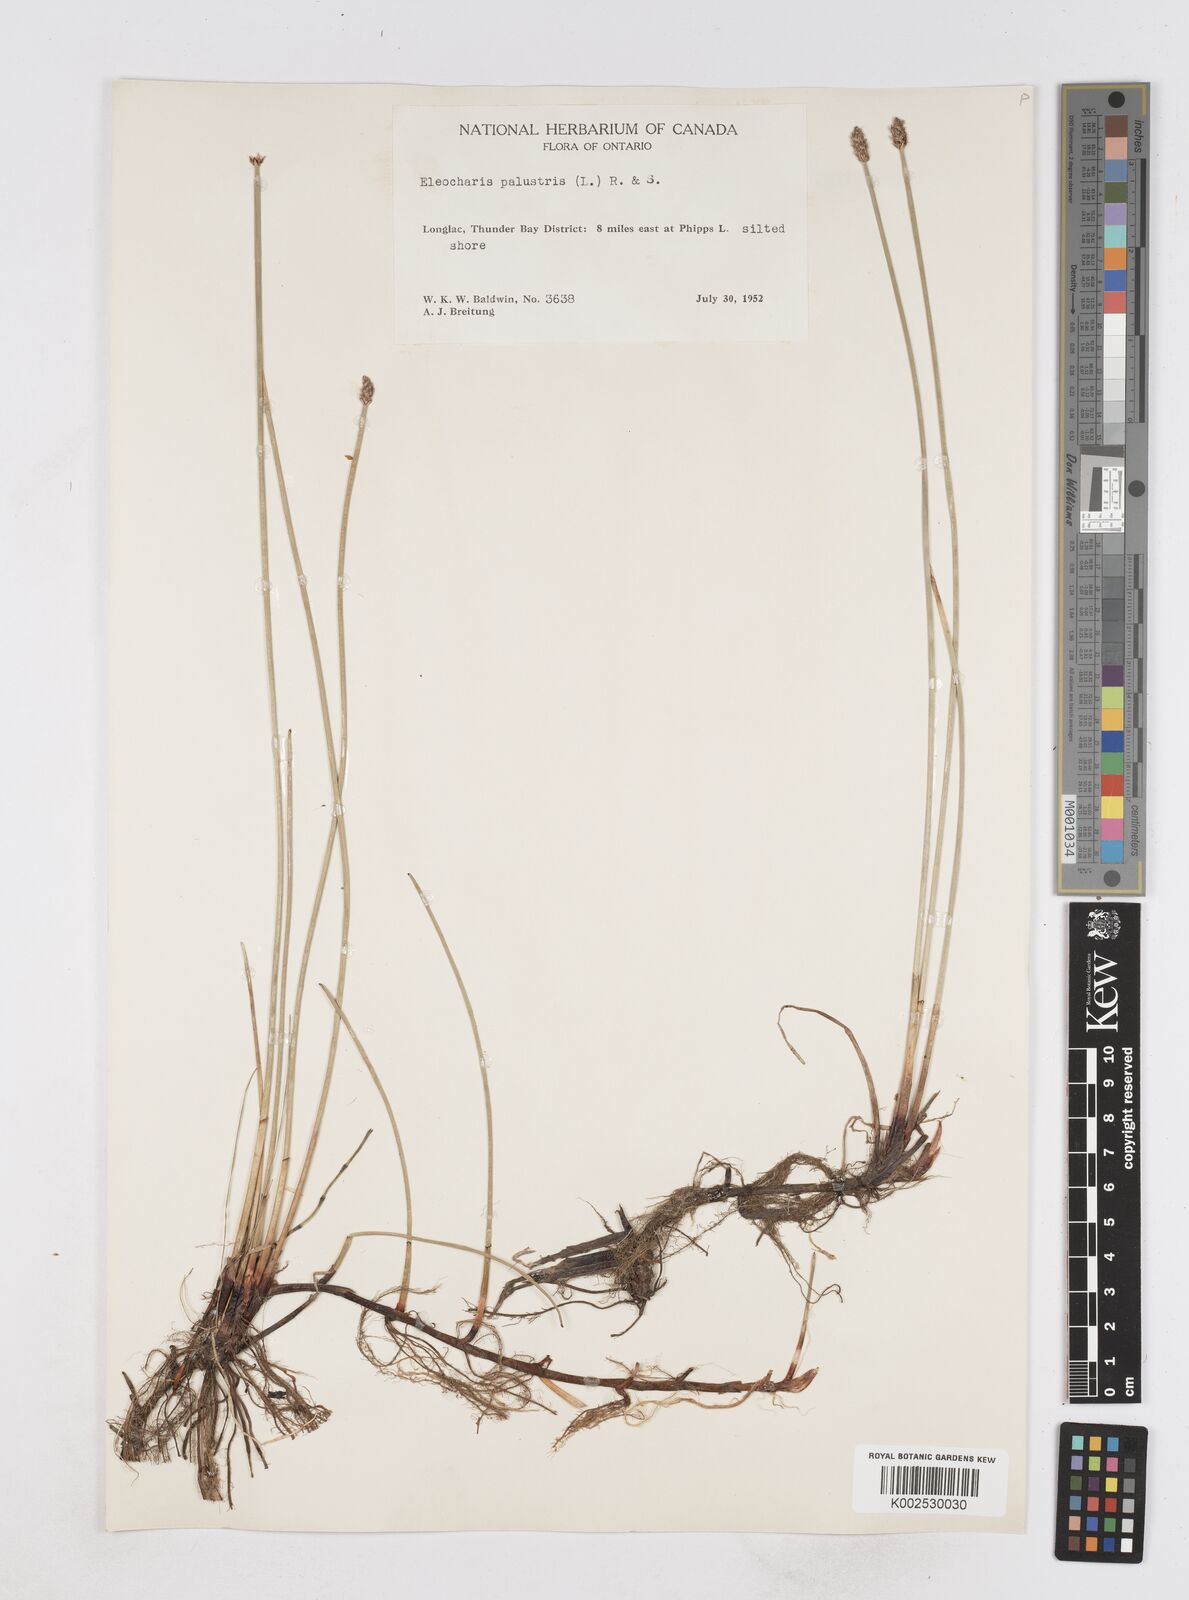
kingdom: Plantae
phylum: Tracheophyta
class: Liliopsida
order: Poales
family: Cyperaceae
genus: Eleocharis
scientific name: Eleocharis palustris
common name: Common spike-rush
